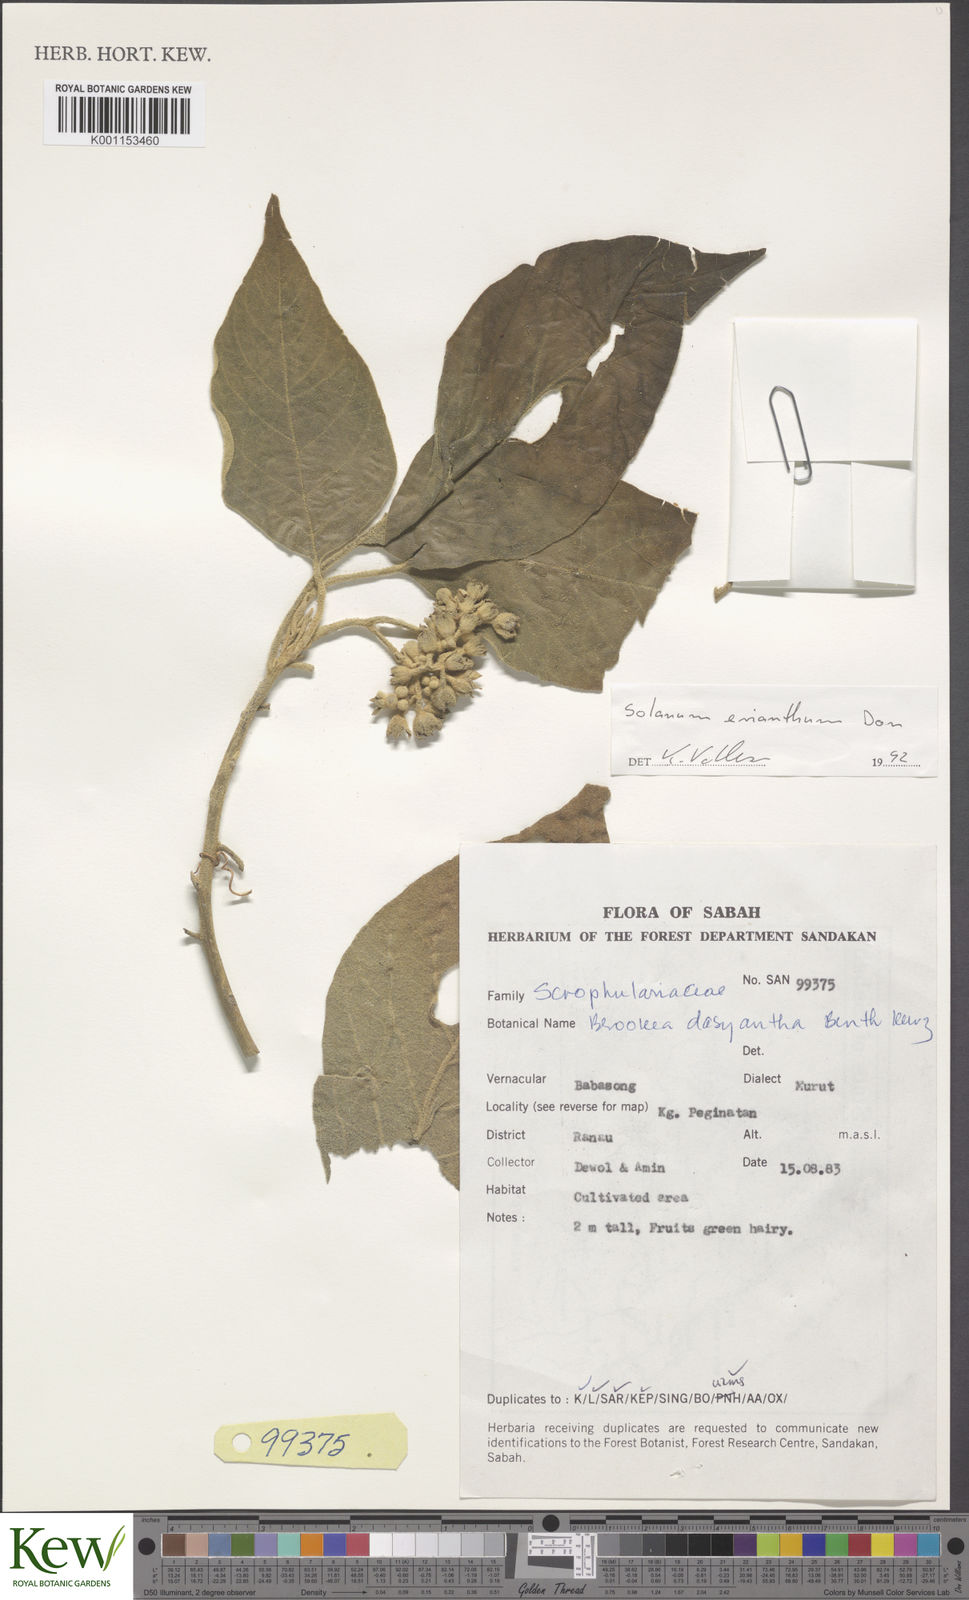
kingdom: Plantae
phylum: Tracheophyta
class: Magnoliopsida
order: Solanales
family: Solanaceae
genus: Solanum
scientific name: Solanum donianum
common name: Mullein nightshade
